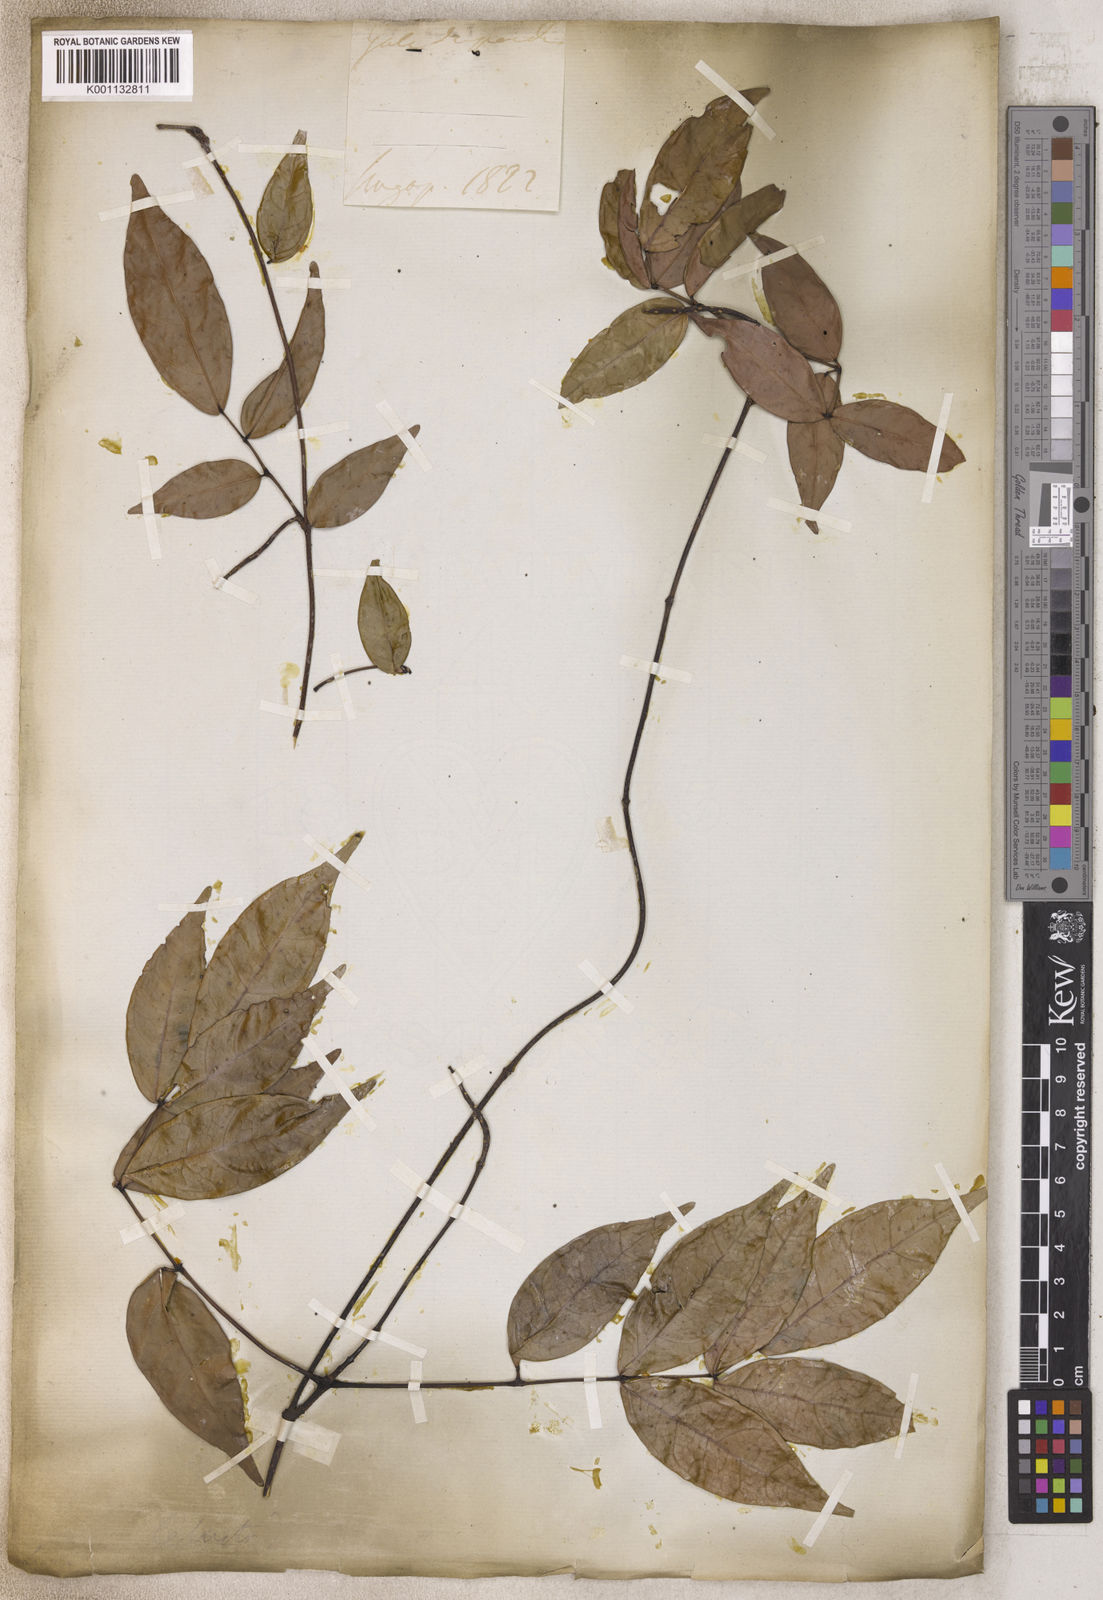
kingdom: Plantae
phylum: Tracheophyta
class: Magnoliopsida
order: Celastrales
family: Celastraceae
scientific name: Celastraceae
